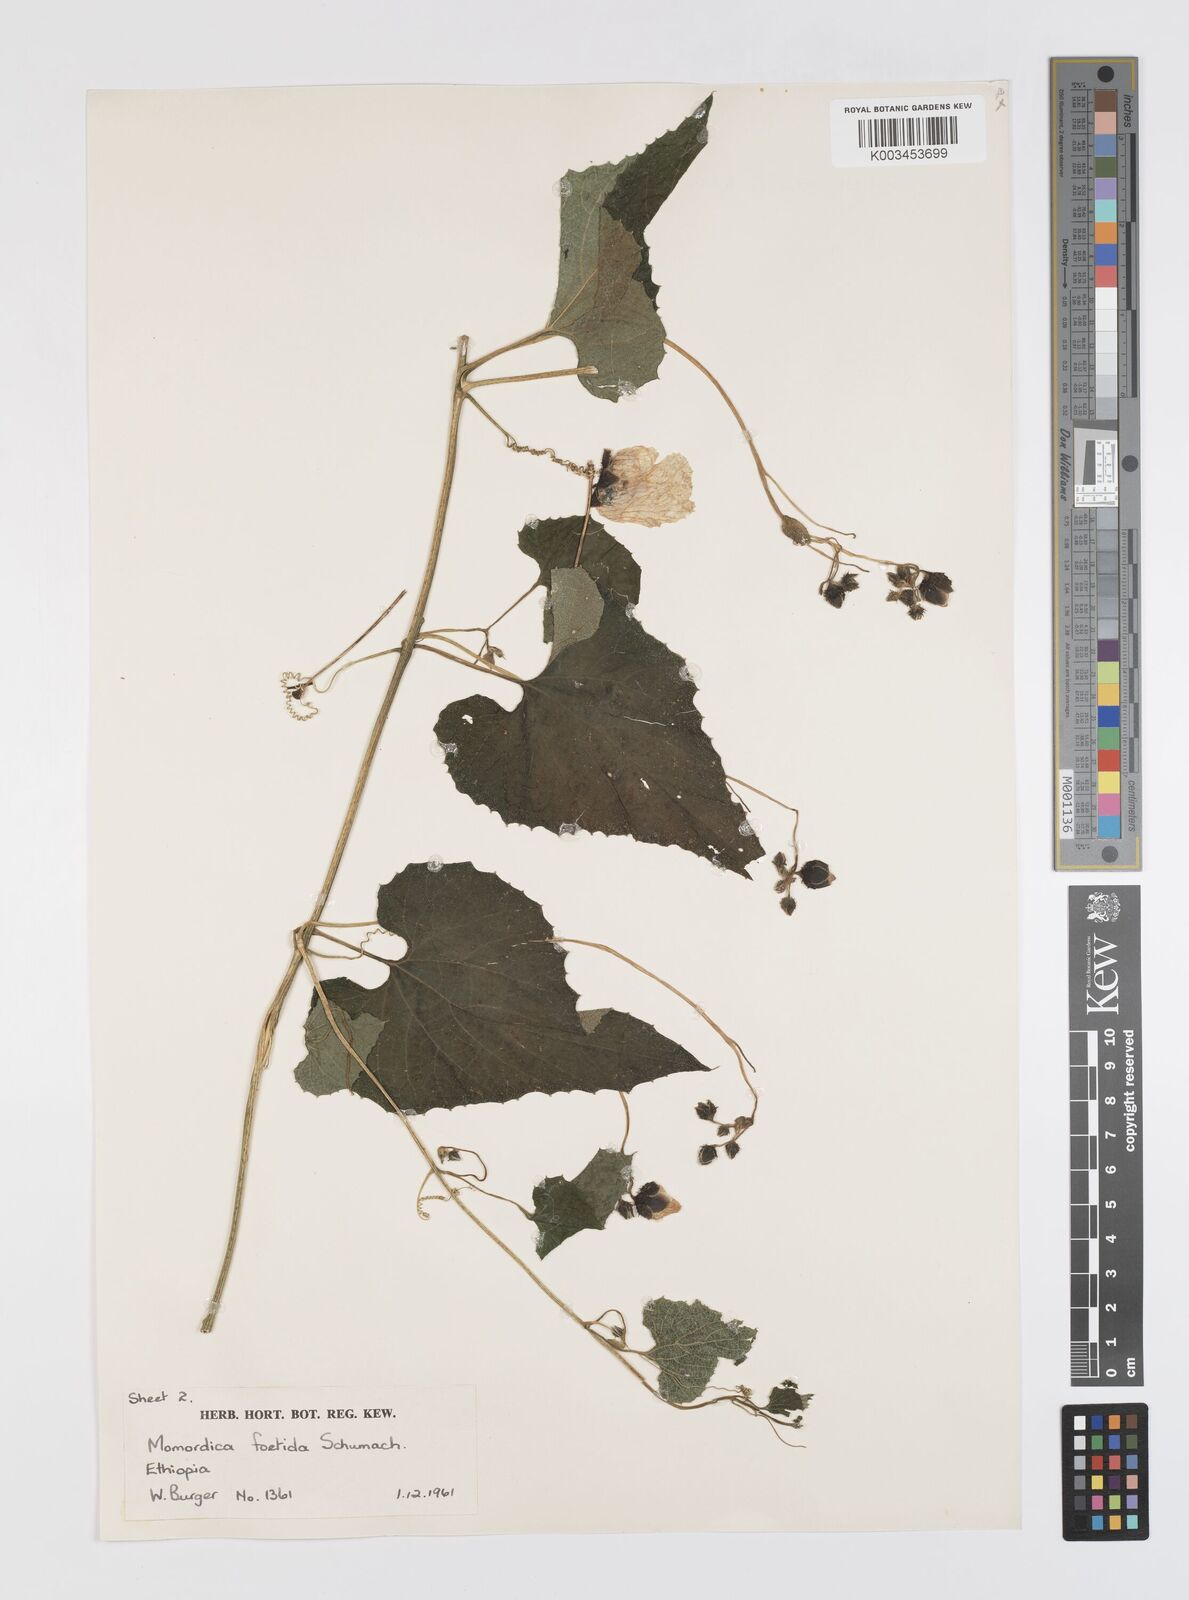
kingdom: Plantae
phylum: Tracheophyta
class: Magnoliopsida
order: Cucurbitales
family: Cucurbitaceae
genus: Momordica
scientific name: Momordica foetida
